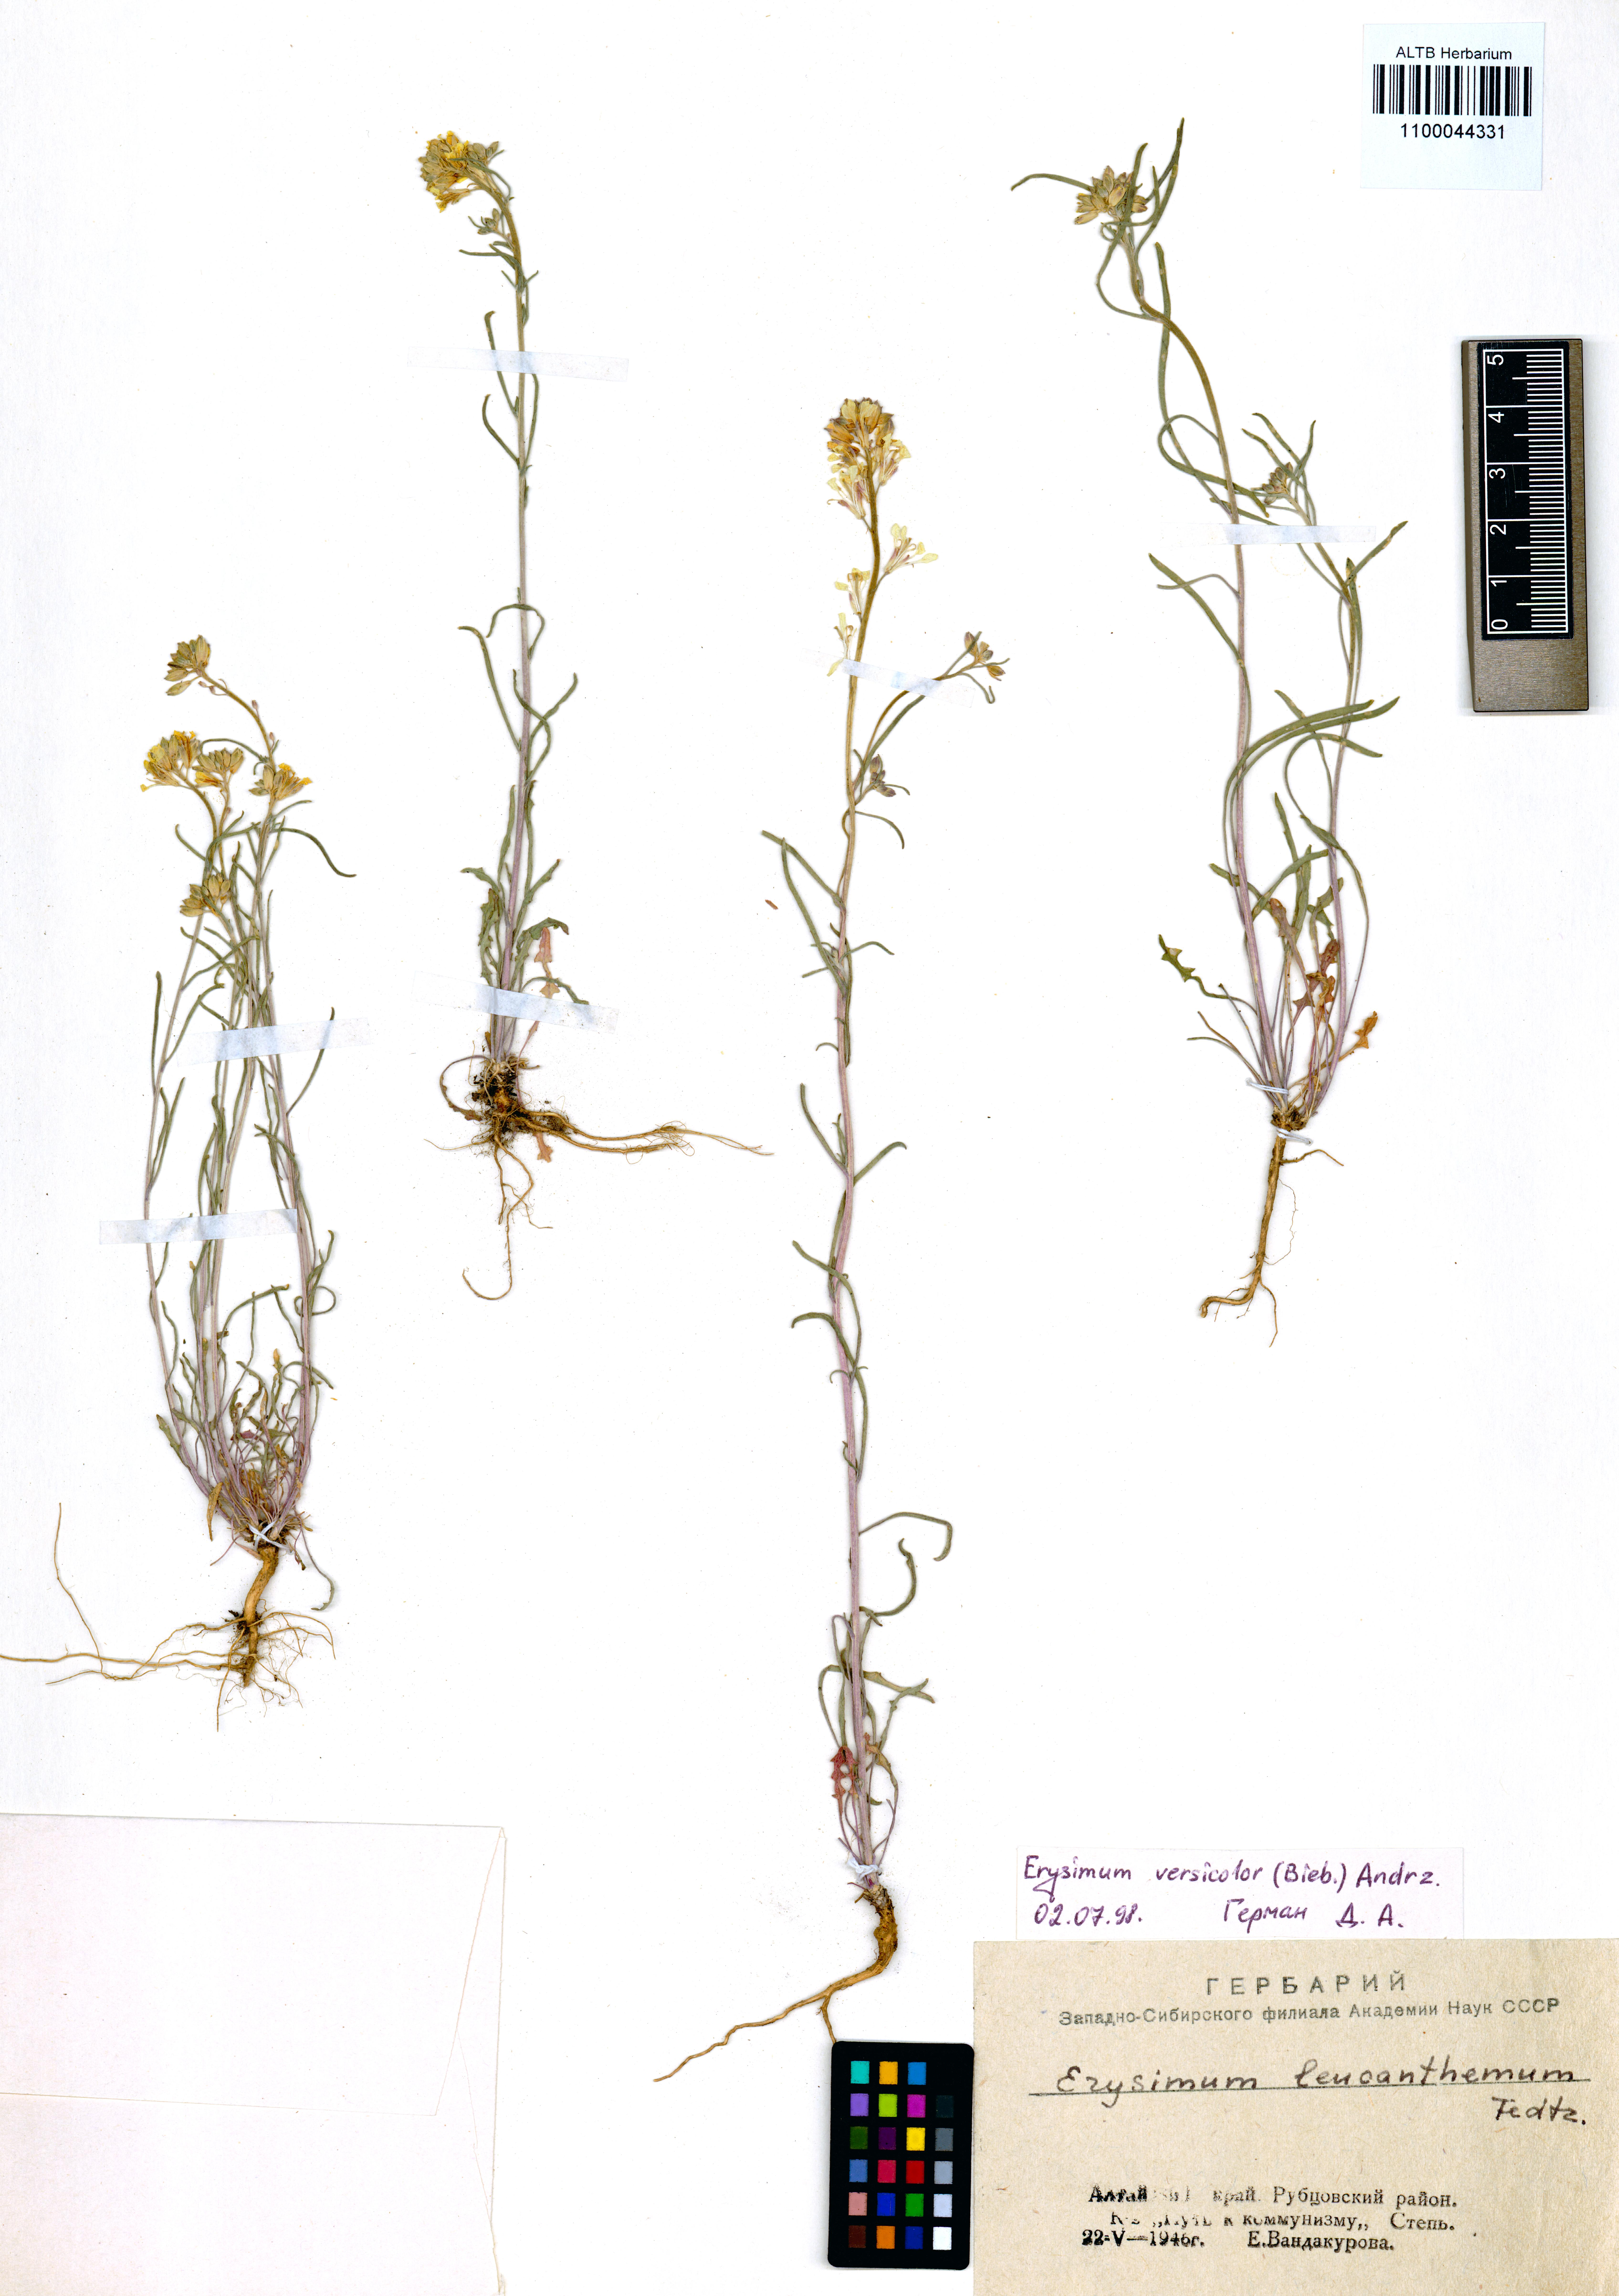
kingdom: Plantae
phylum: Tracheophyta
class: Magnoliopsida
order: Brassicales
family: Brassicaceae
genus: Erysimum
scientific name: Erysimum leucanthemum
